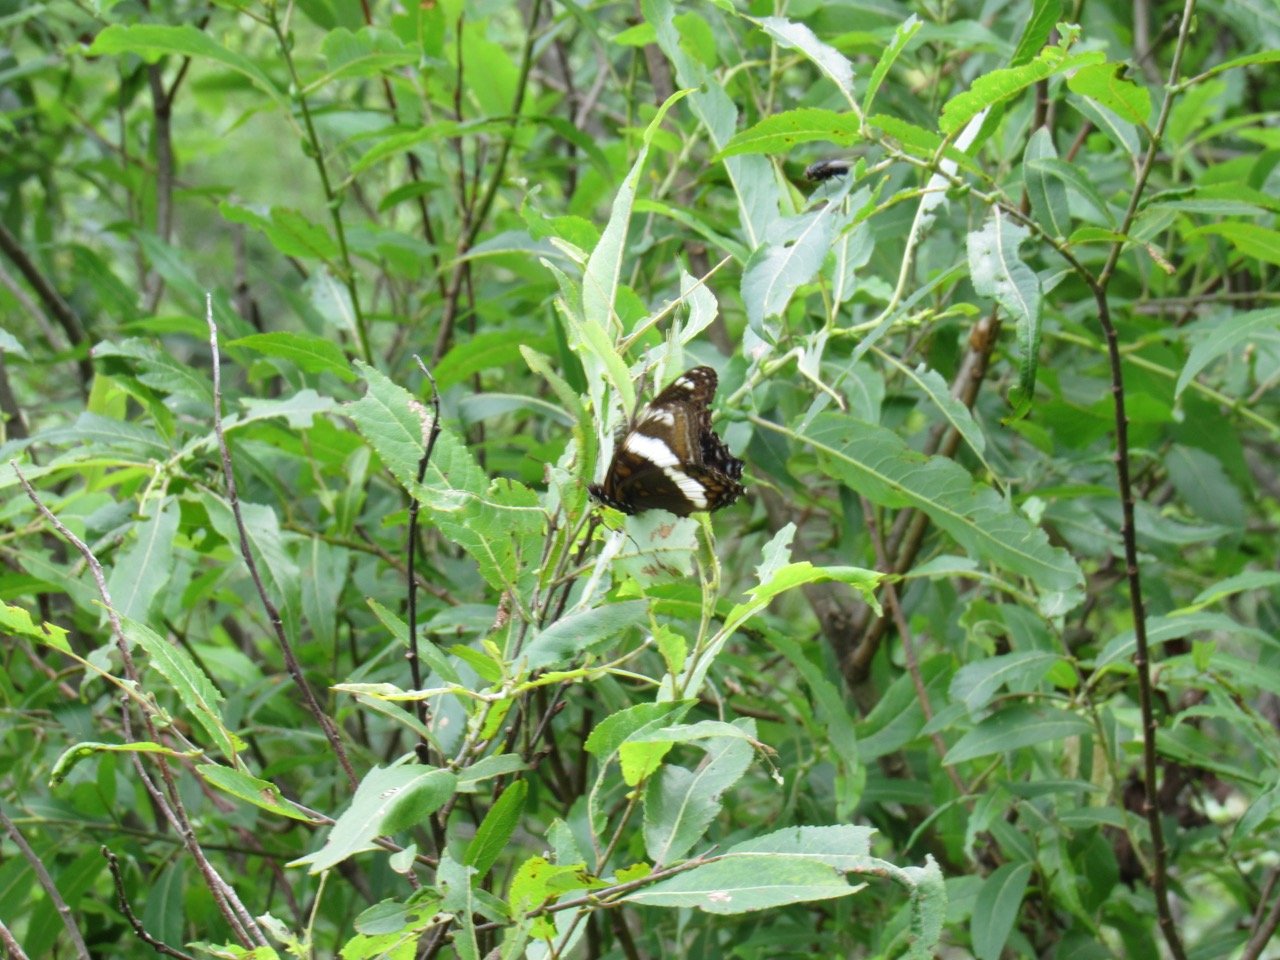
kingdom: Animalia
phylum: Arthropoda
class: Insecta
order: Lepidoptera
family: Nymphalidae
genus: Limenitis
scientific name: Limenitis arthemis
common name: Red-spotted Admiral
